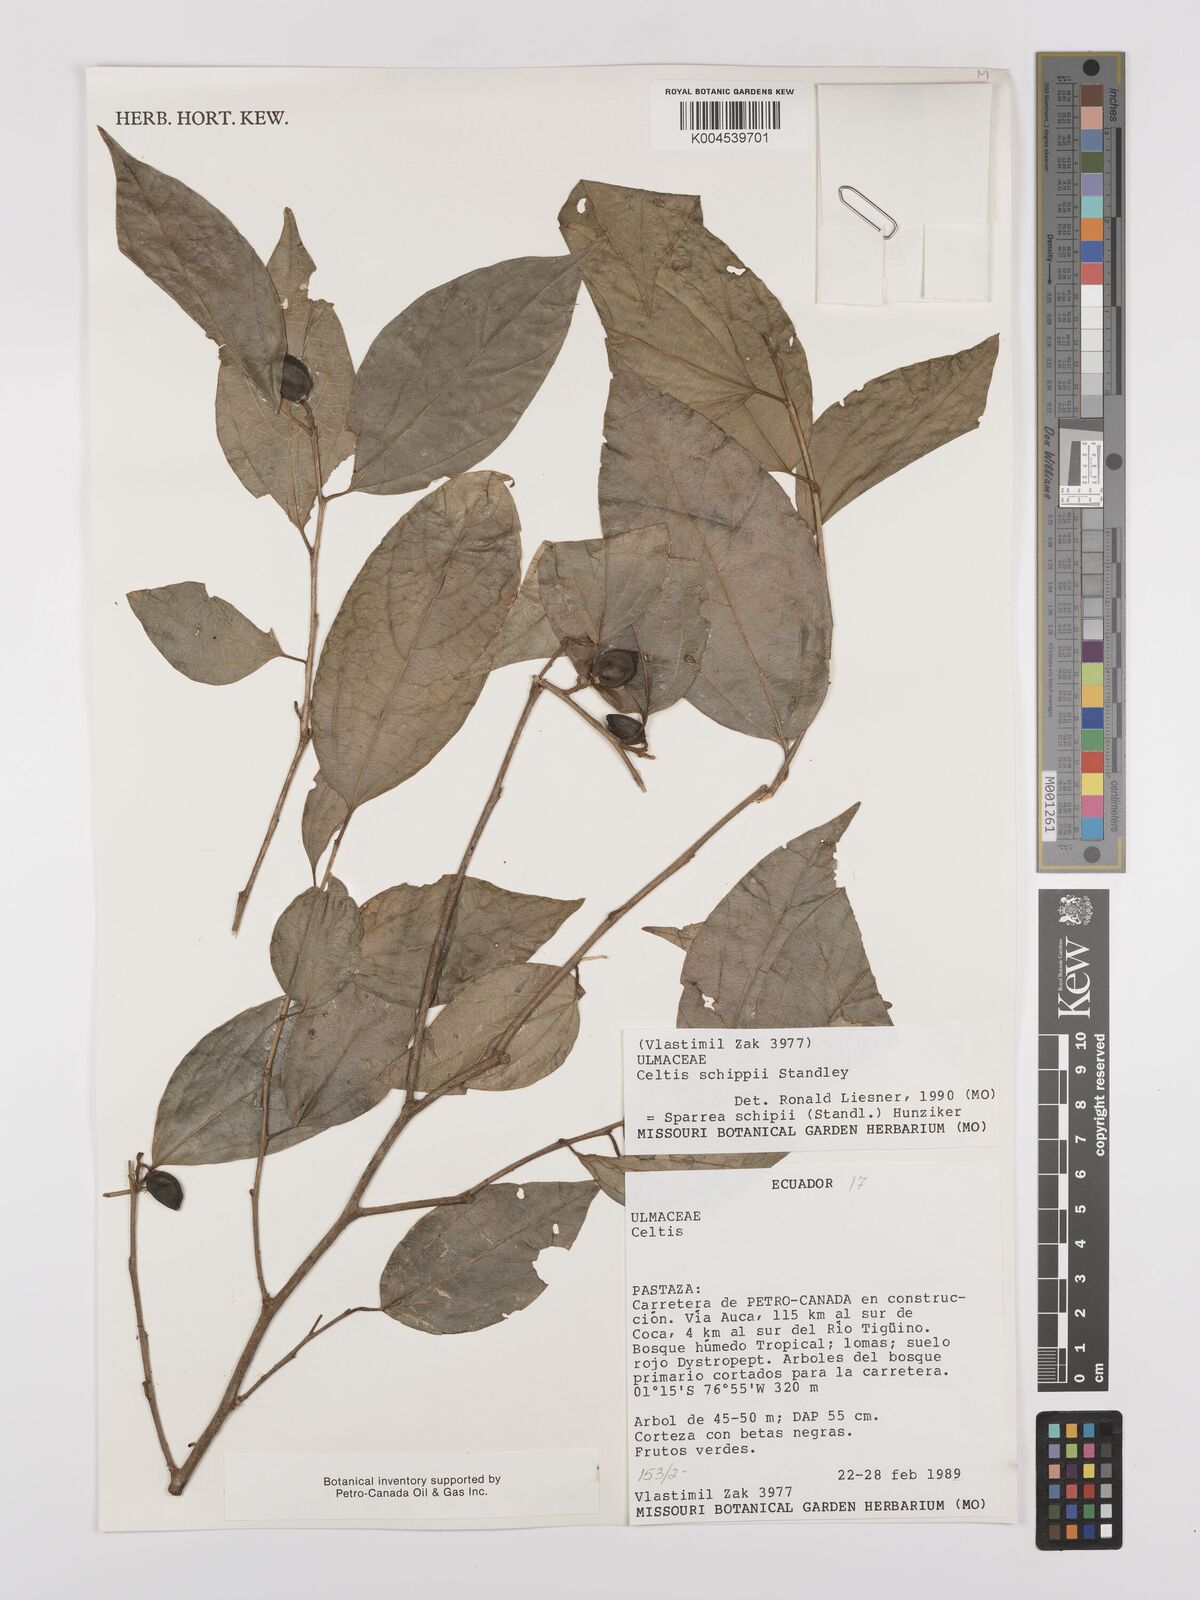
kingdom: Plantae
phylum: Tracheophyta
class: Magnoliopsida
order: Rosales
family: Cannabaceae
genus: Celtis
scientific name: Celtis schippii
